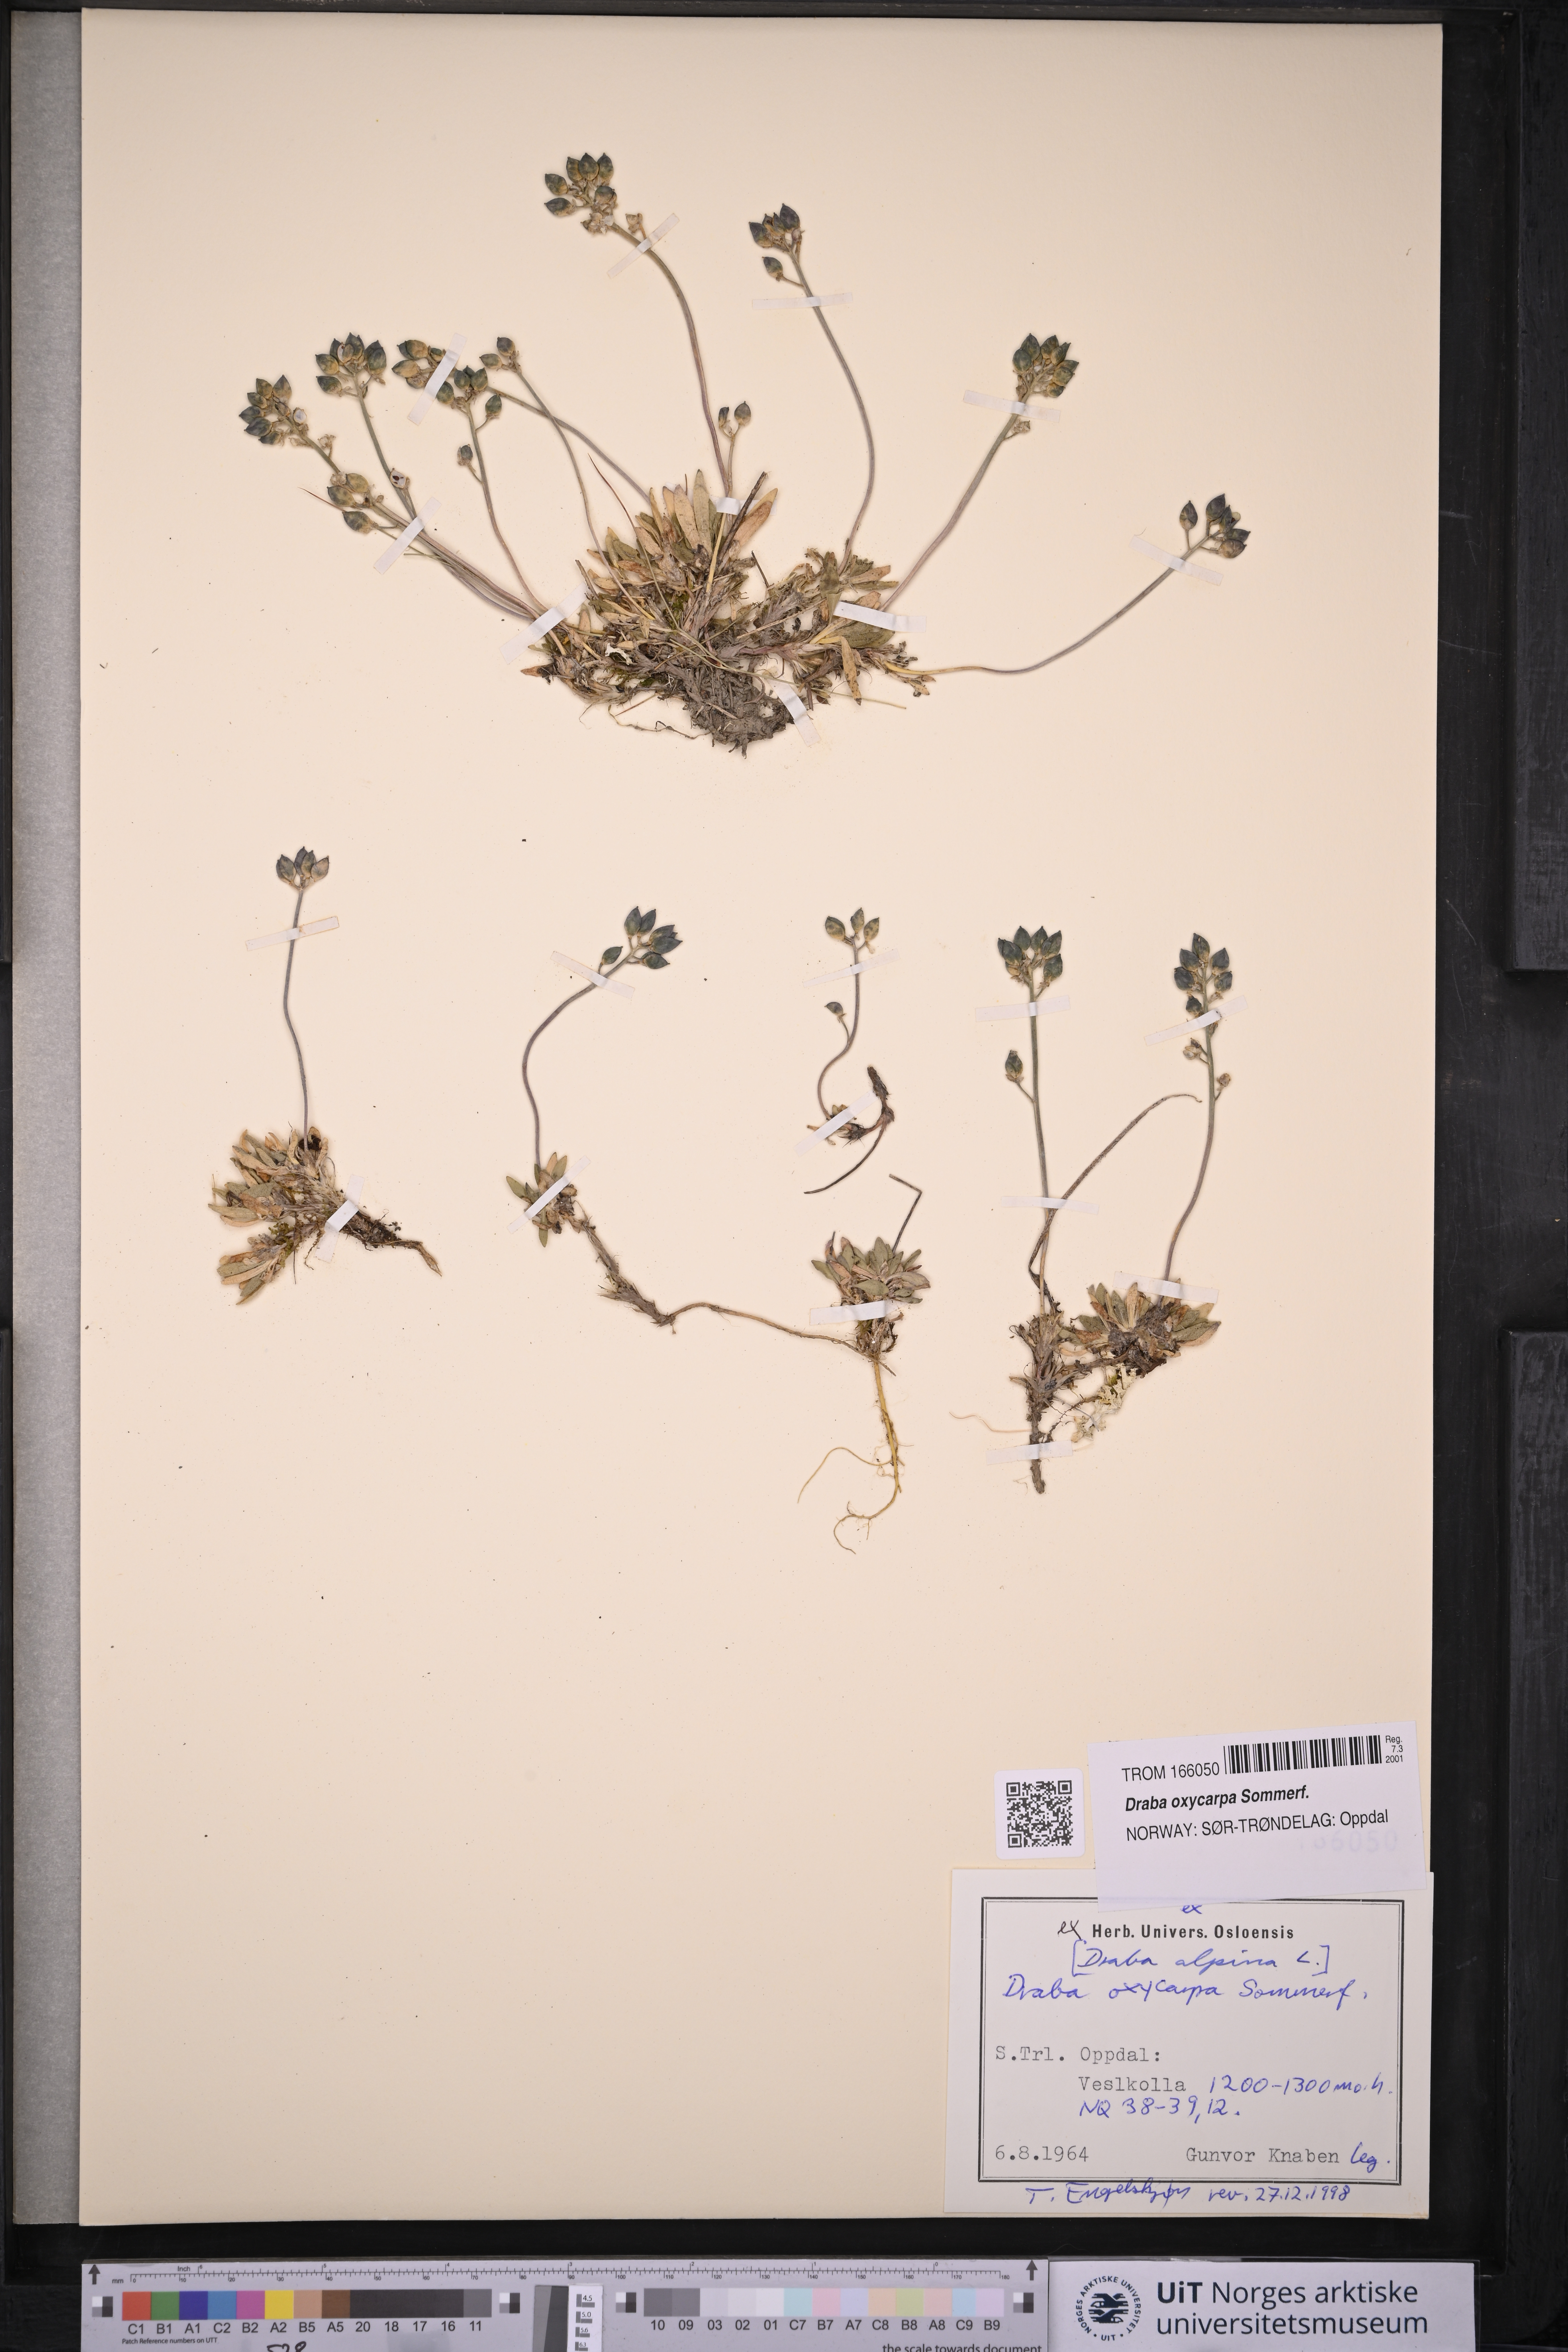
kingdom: Plantae
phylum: Tracheophyta
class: Magnoliopsida
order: Brassicales
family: Brassicaceae
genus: Draba
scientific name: Draba oxycarpa
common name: Sharp-fruited whitlow-grass
